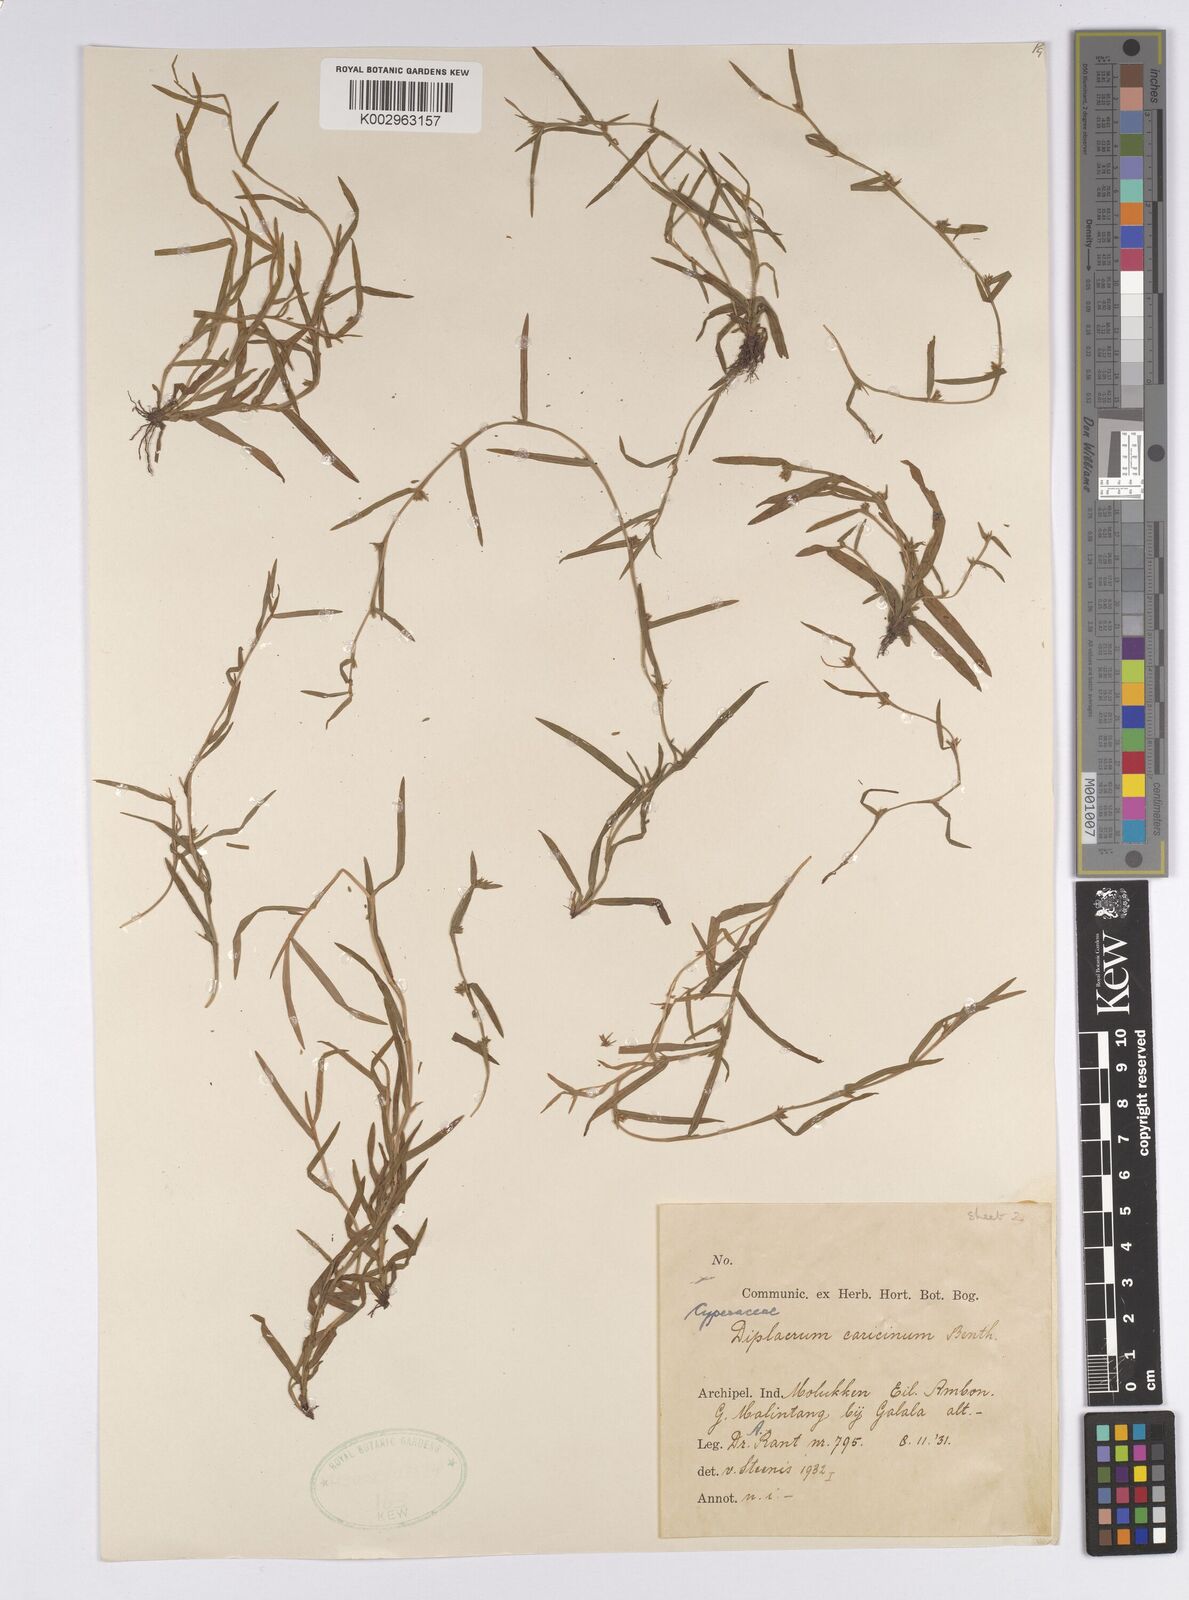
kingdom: Plantae
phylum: Tracheophyta
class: Liliopsida
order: Poales
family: Cyperaceae
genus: Diplacrum
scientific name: Diplacrum caricinum
